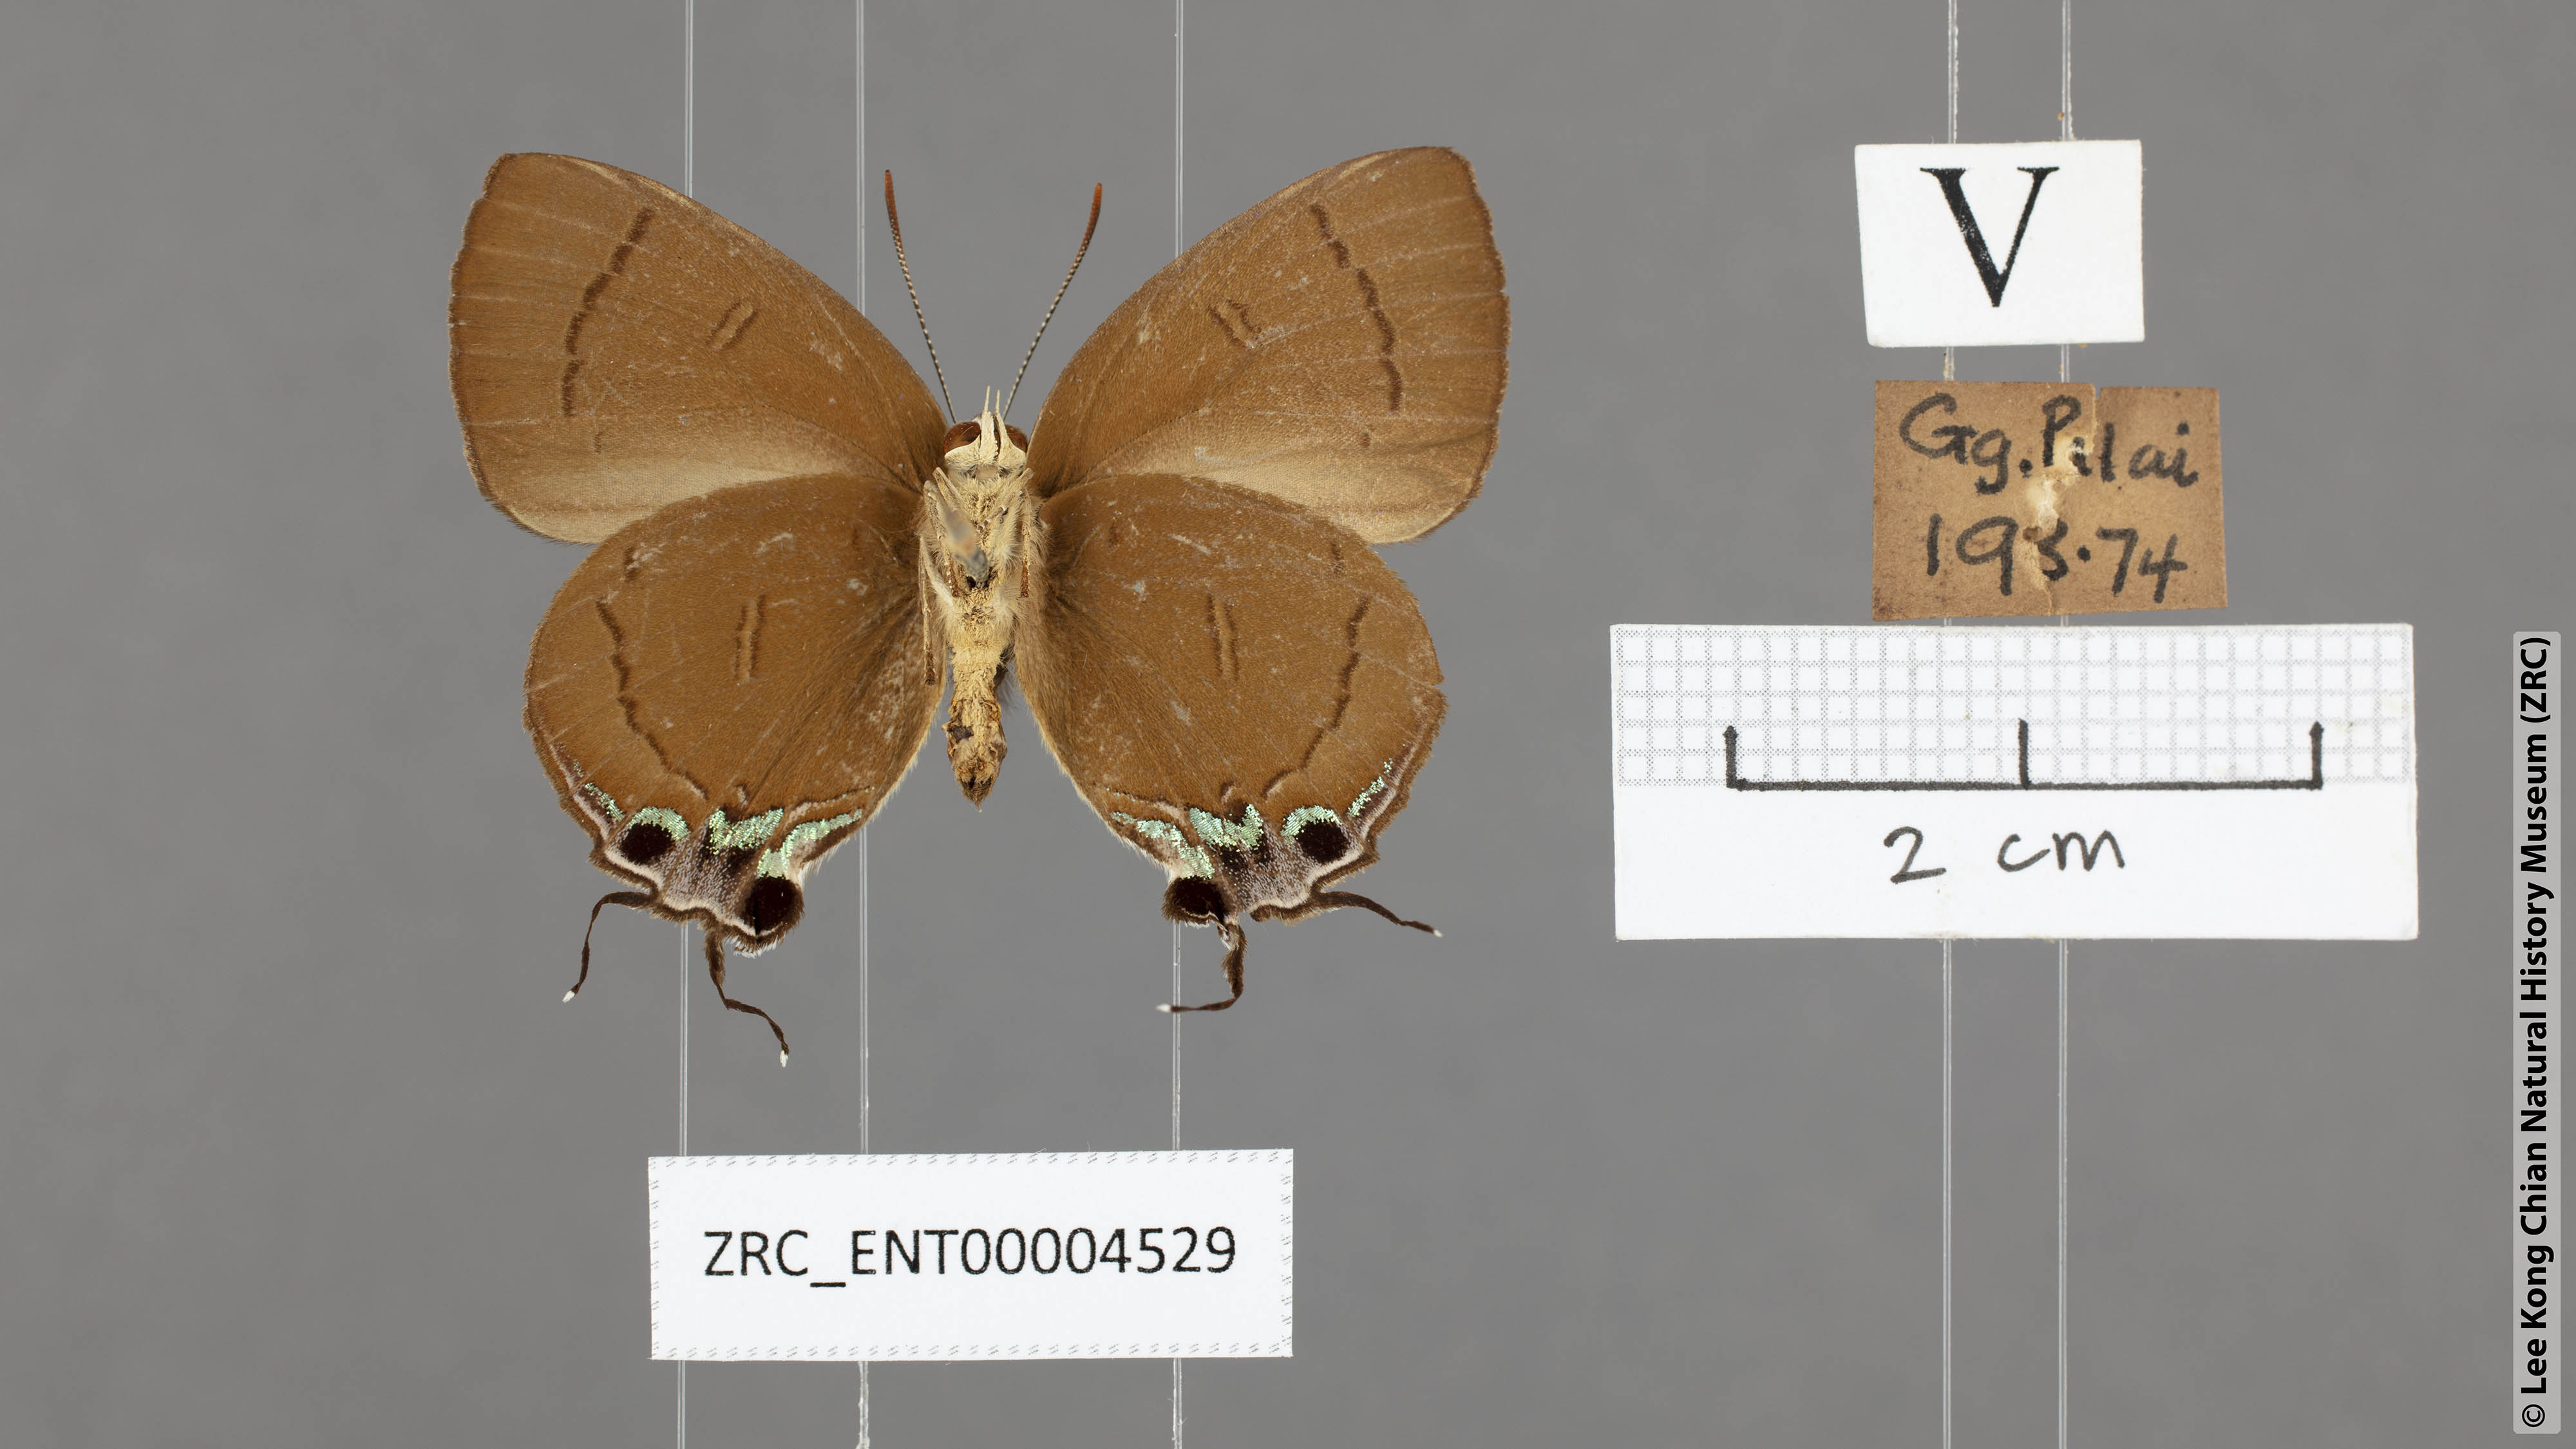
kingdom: Animalia
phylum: Arthropoda
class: Insecta
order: Lepidoptera
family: Lycaenidae
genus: Remelana
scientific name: Remelana jangala
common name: Chocolate royal
